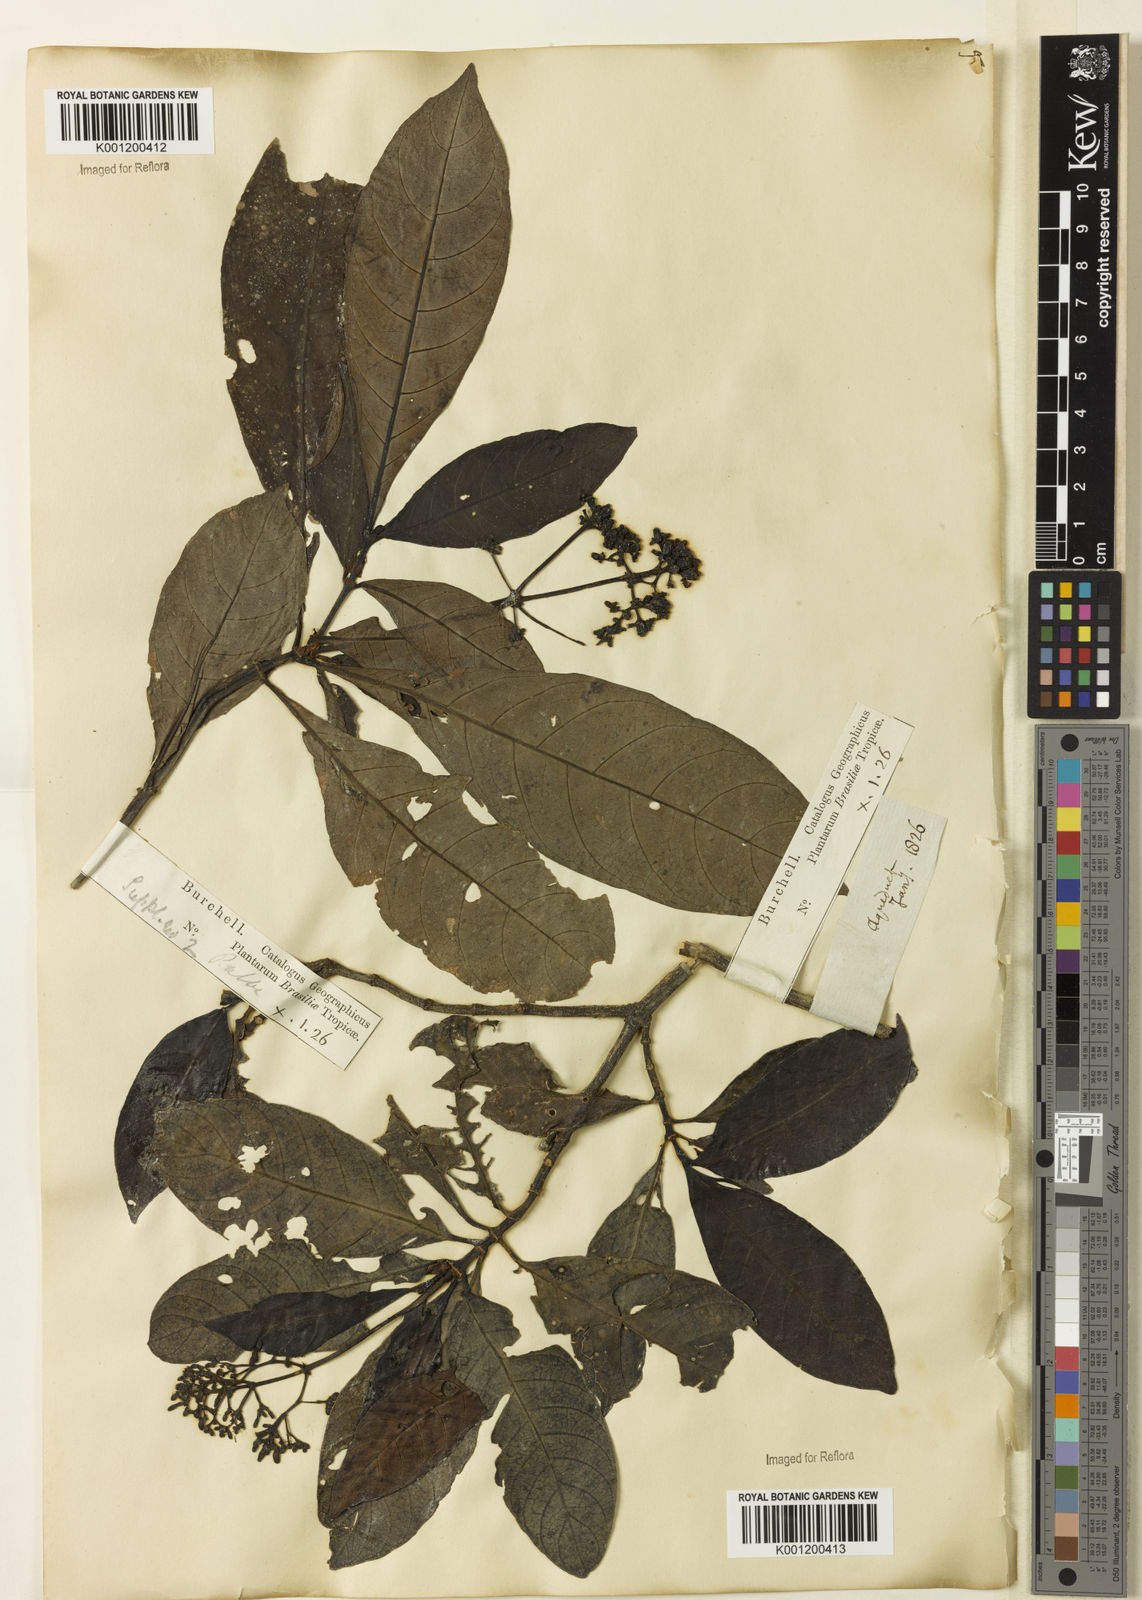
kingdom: Plantae
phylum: Tracheophyta
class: Magnoliopsida
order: Gentianales
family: Rubiaceae
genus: Psychotria
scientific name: Psychotria carthagenensis
